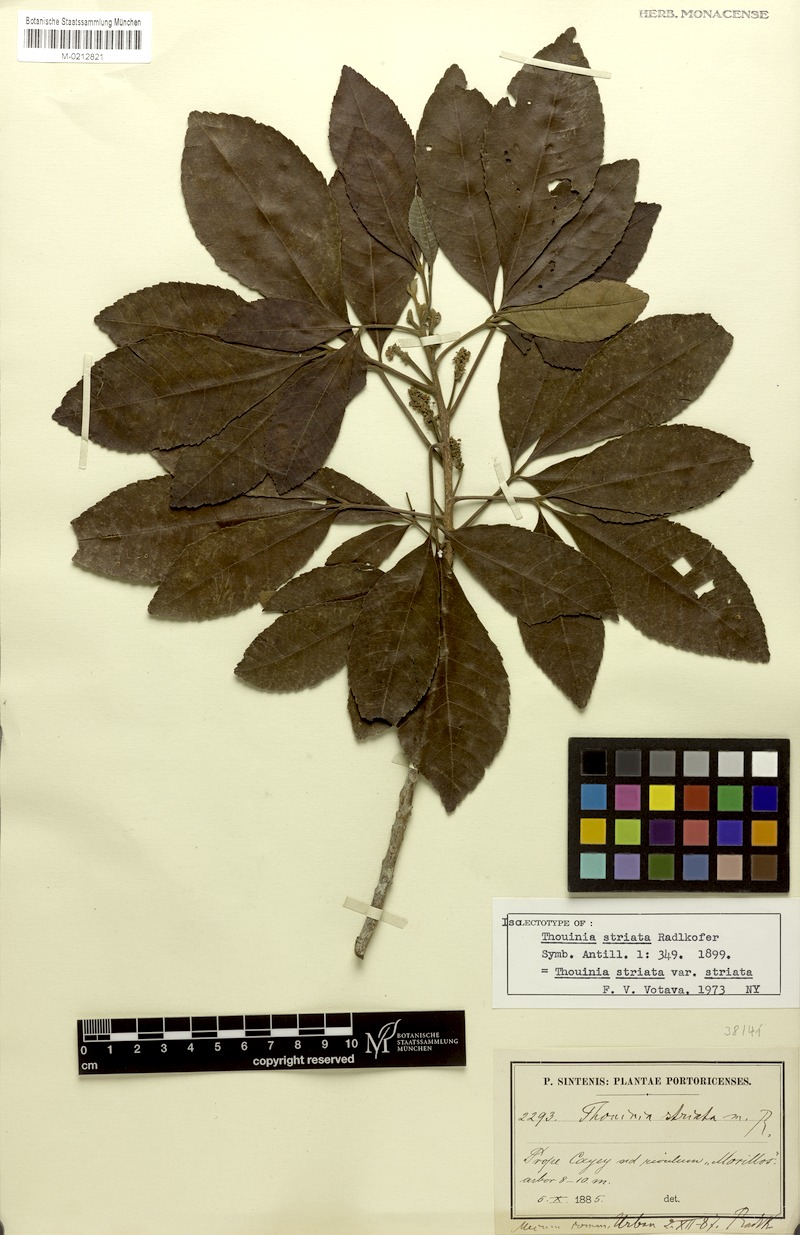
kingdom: Plantae
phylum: Tracheophyta
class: Magnoliopsida
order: Sapindales
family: Sapindaceae
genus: Thouinia
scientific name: Thouinia striata
